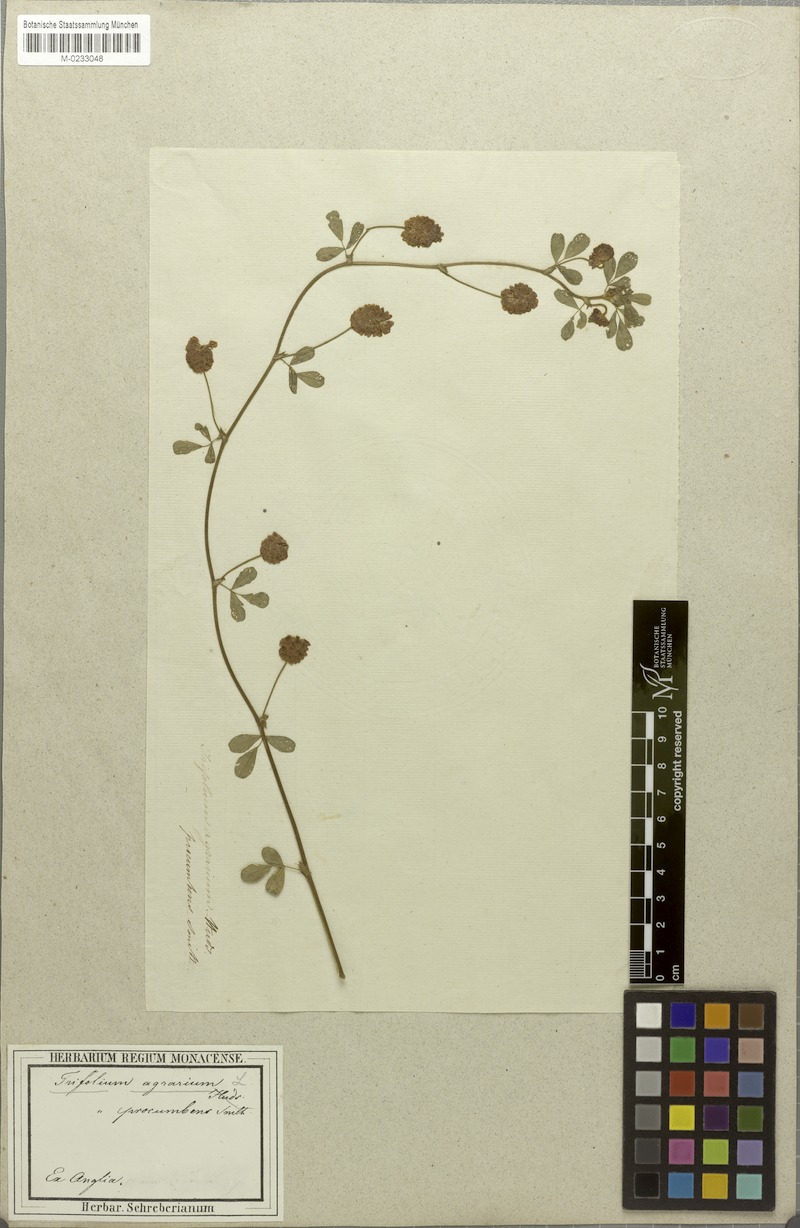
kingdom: Plantae
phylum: Tracheophyta
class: Magnoliopsida
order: Fabales
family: Fabaceae
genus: Trifolium
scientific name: Trifolium campestre
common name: Field clover
